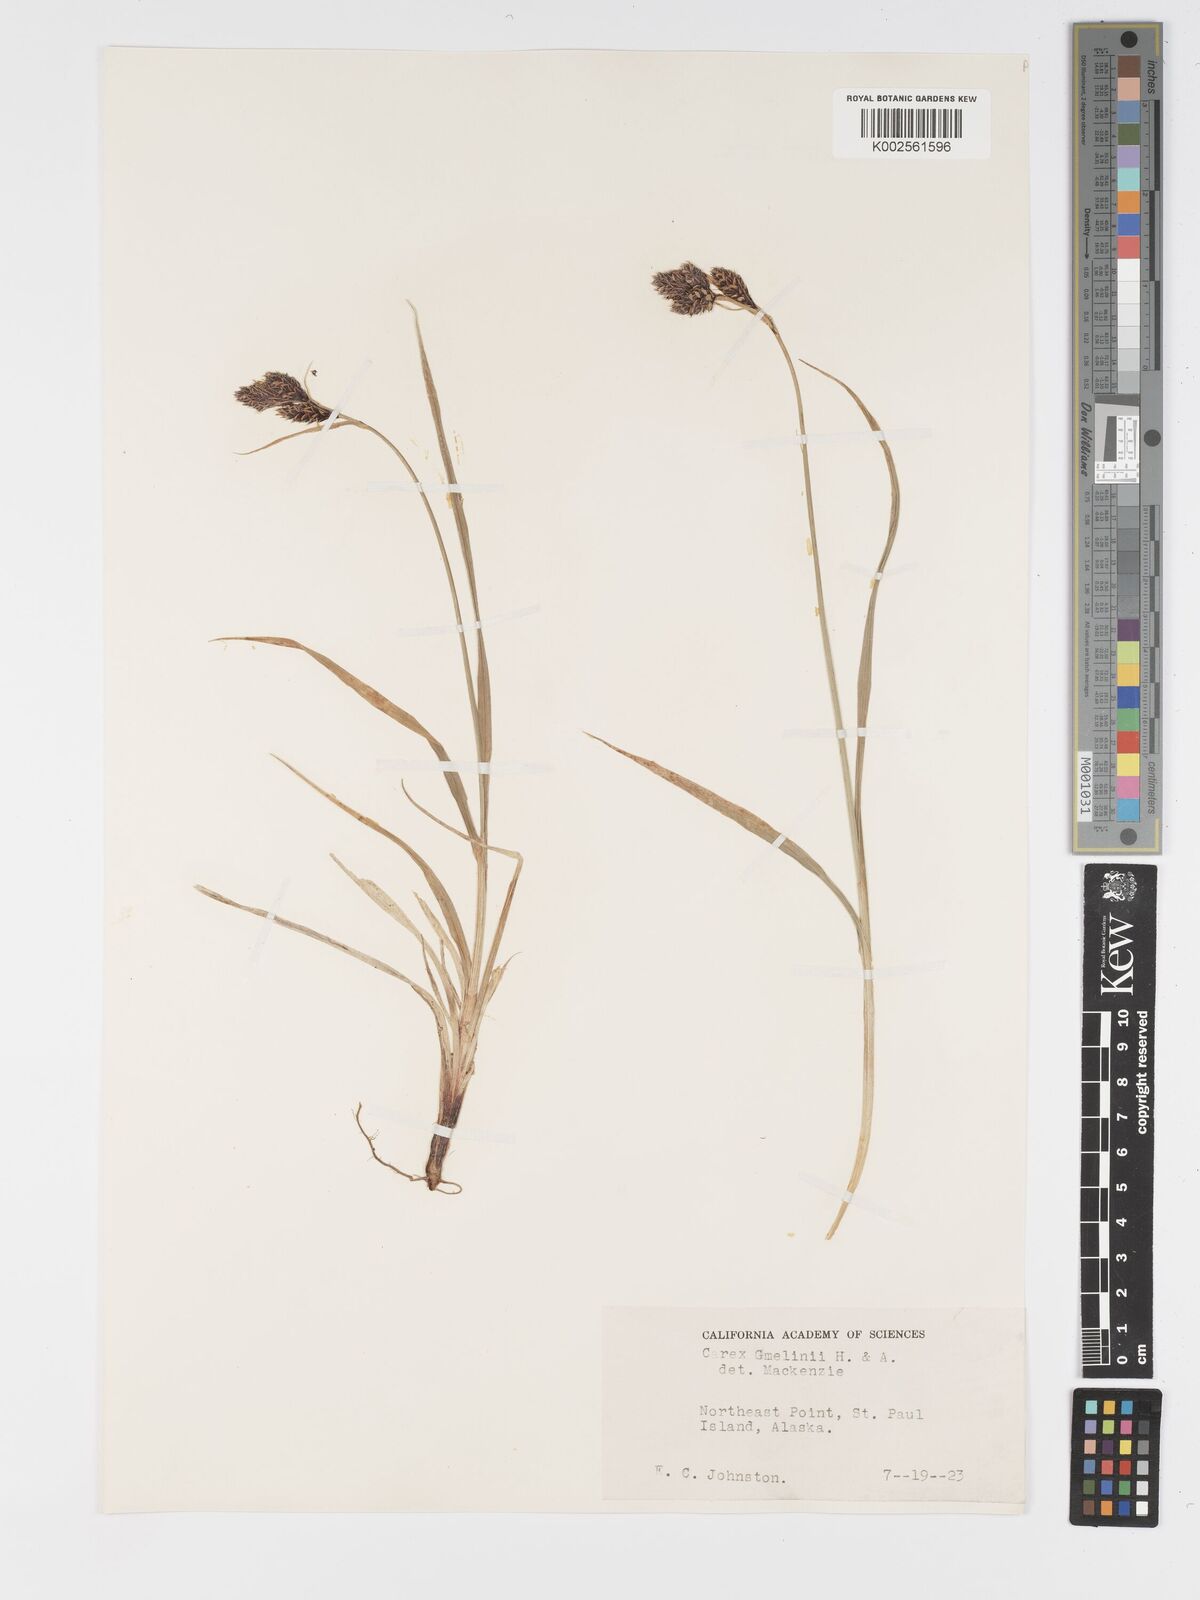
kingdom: Plantae
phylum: Tracheophyta
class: Liliopsida
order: Poales
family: Cyperaceae
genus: Carex
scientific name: Carex gmelinii
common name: Gmelin's sedge
